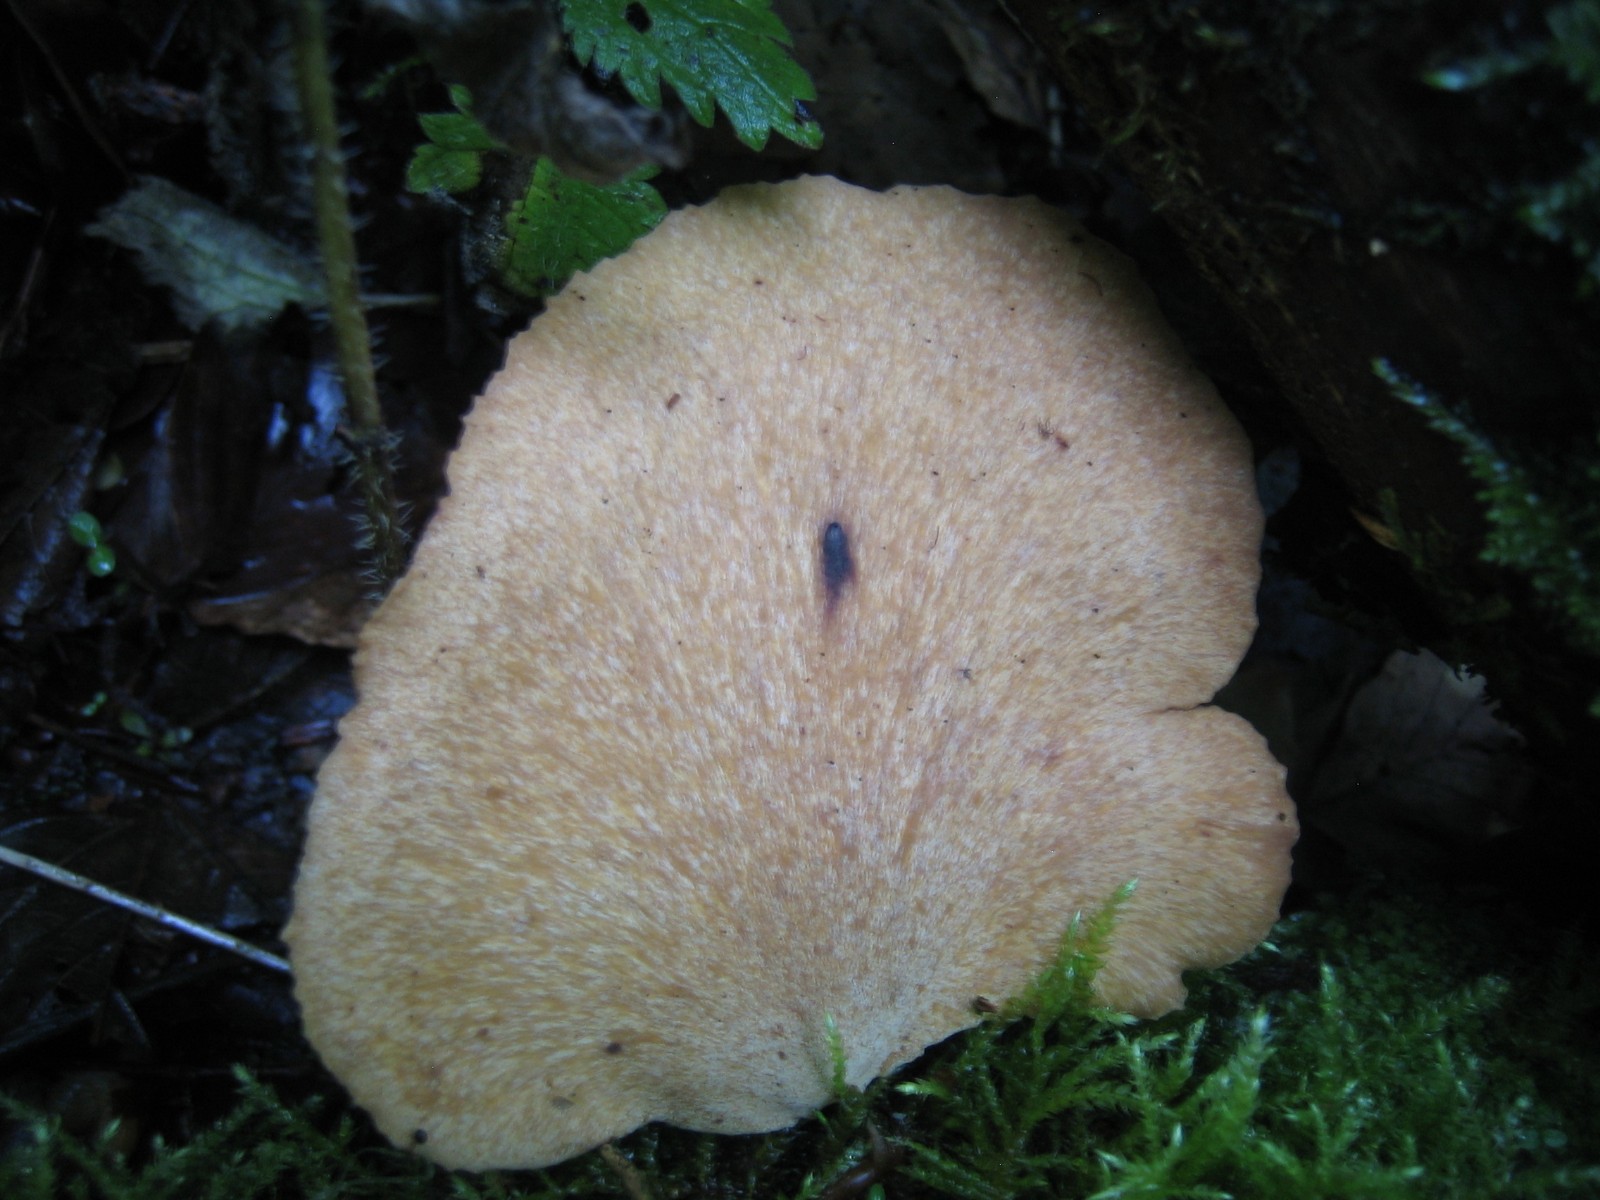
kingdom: Fungi
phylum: Basidiomycota
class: Agaricomycetes
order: Polyporales
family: Polyporaceae
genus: Cerioporus
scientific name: Cerioporus varius
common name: foranderlig stilkporesvamp
